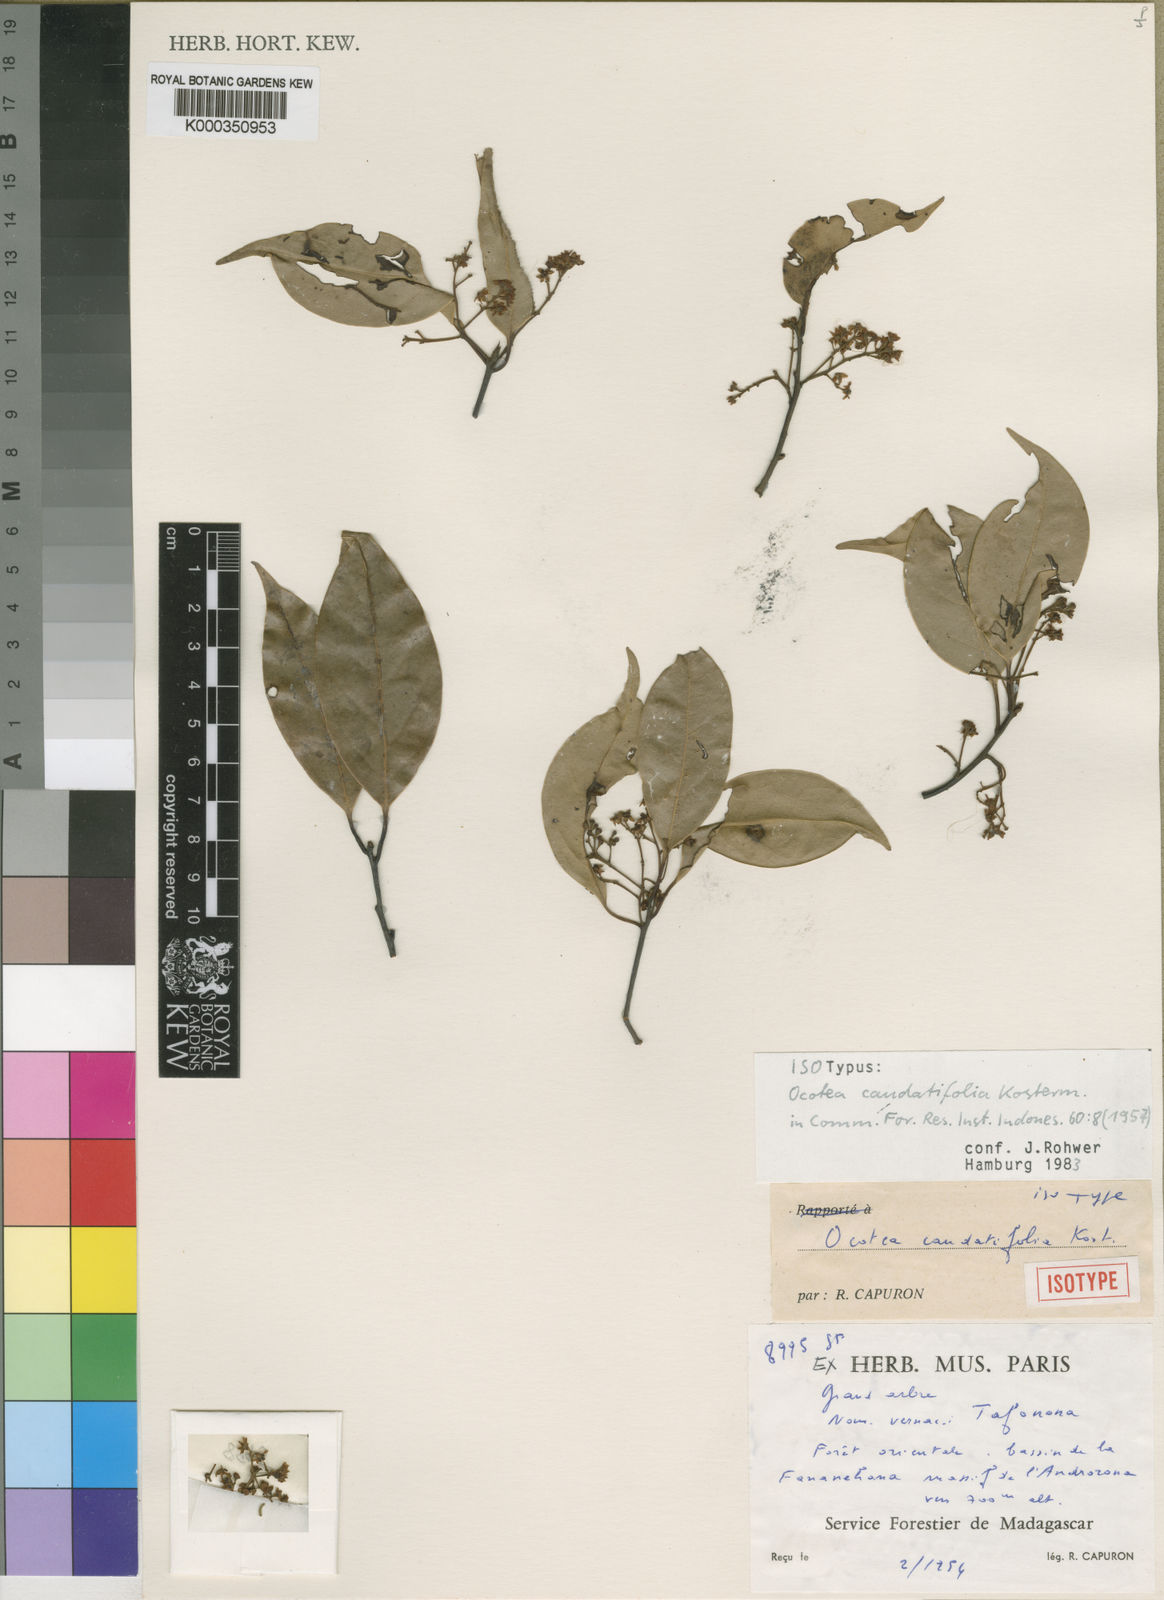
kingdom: Plantae
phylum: Tracheophyta
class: Magnoliopsida
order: Laurales
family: Lauraceae
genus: Ocotea
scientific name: Ocotea caudatifolia
